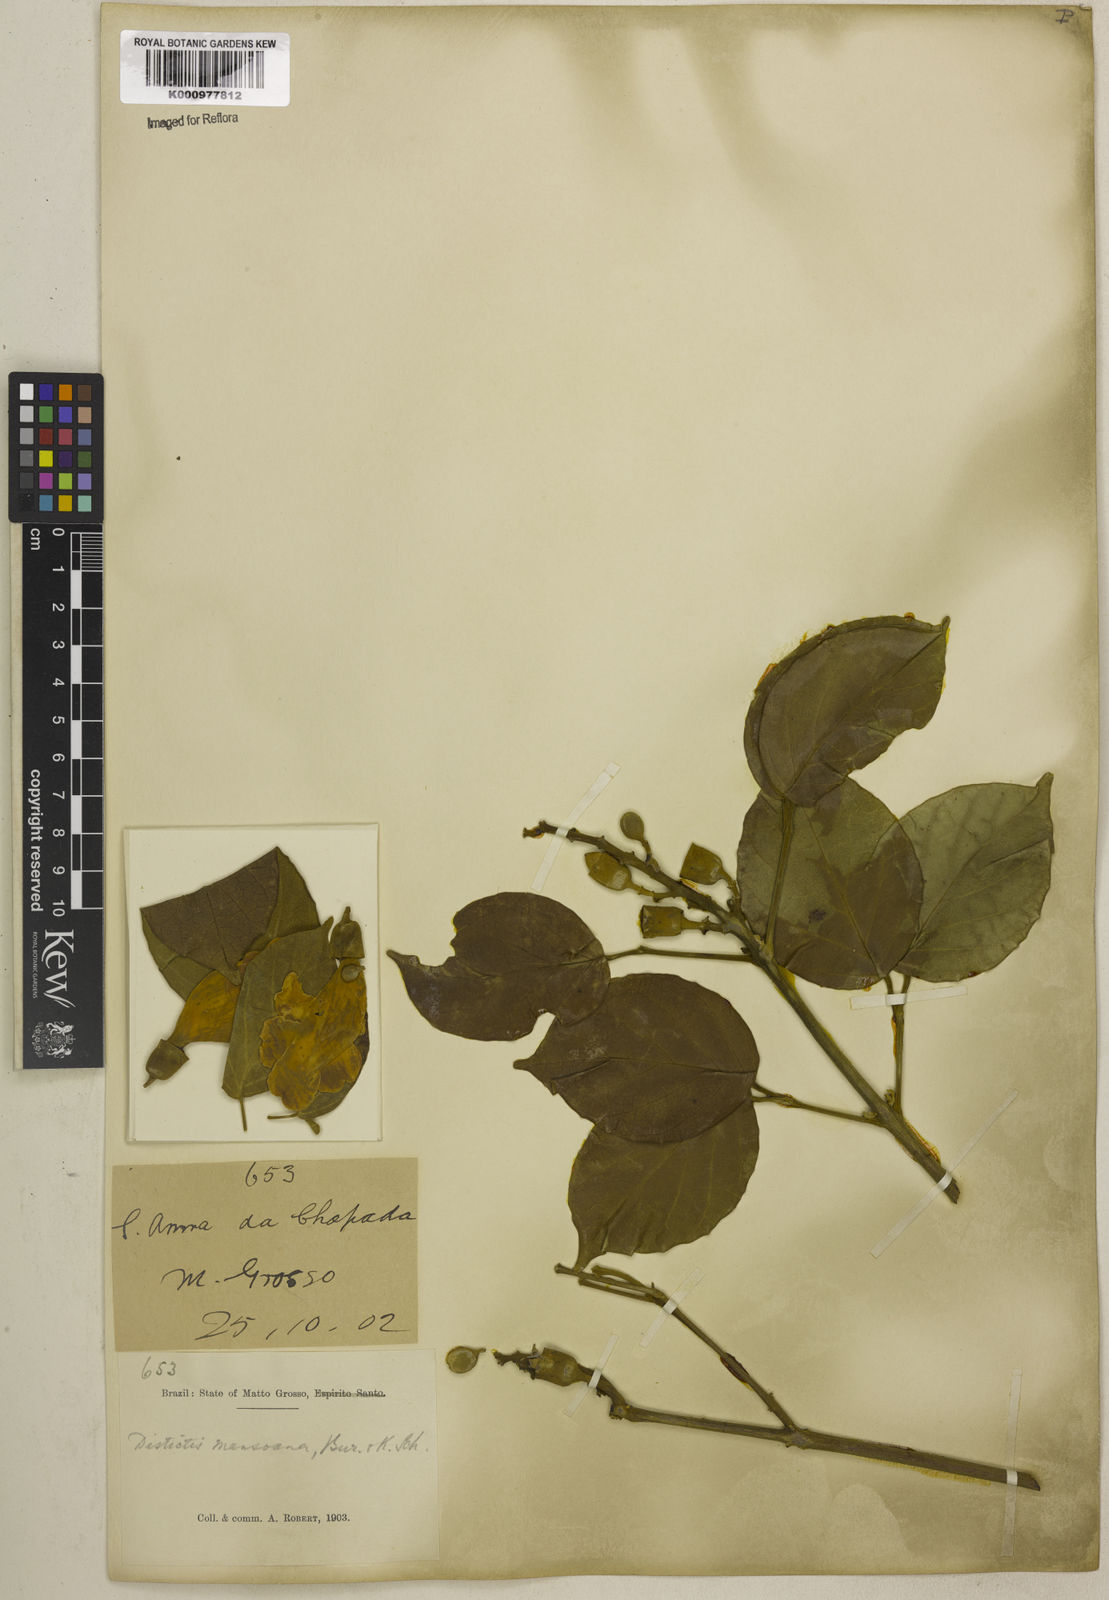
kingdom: Plantae
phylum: Tracheophyta
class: Magnoliopsida
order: Lamiales
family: Bignoniaceae
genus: Amphilophium
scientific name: Amphilophium mansoanum
